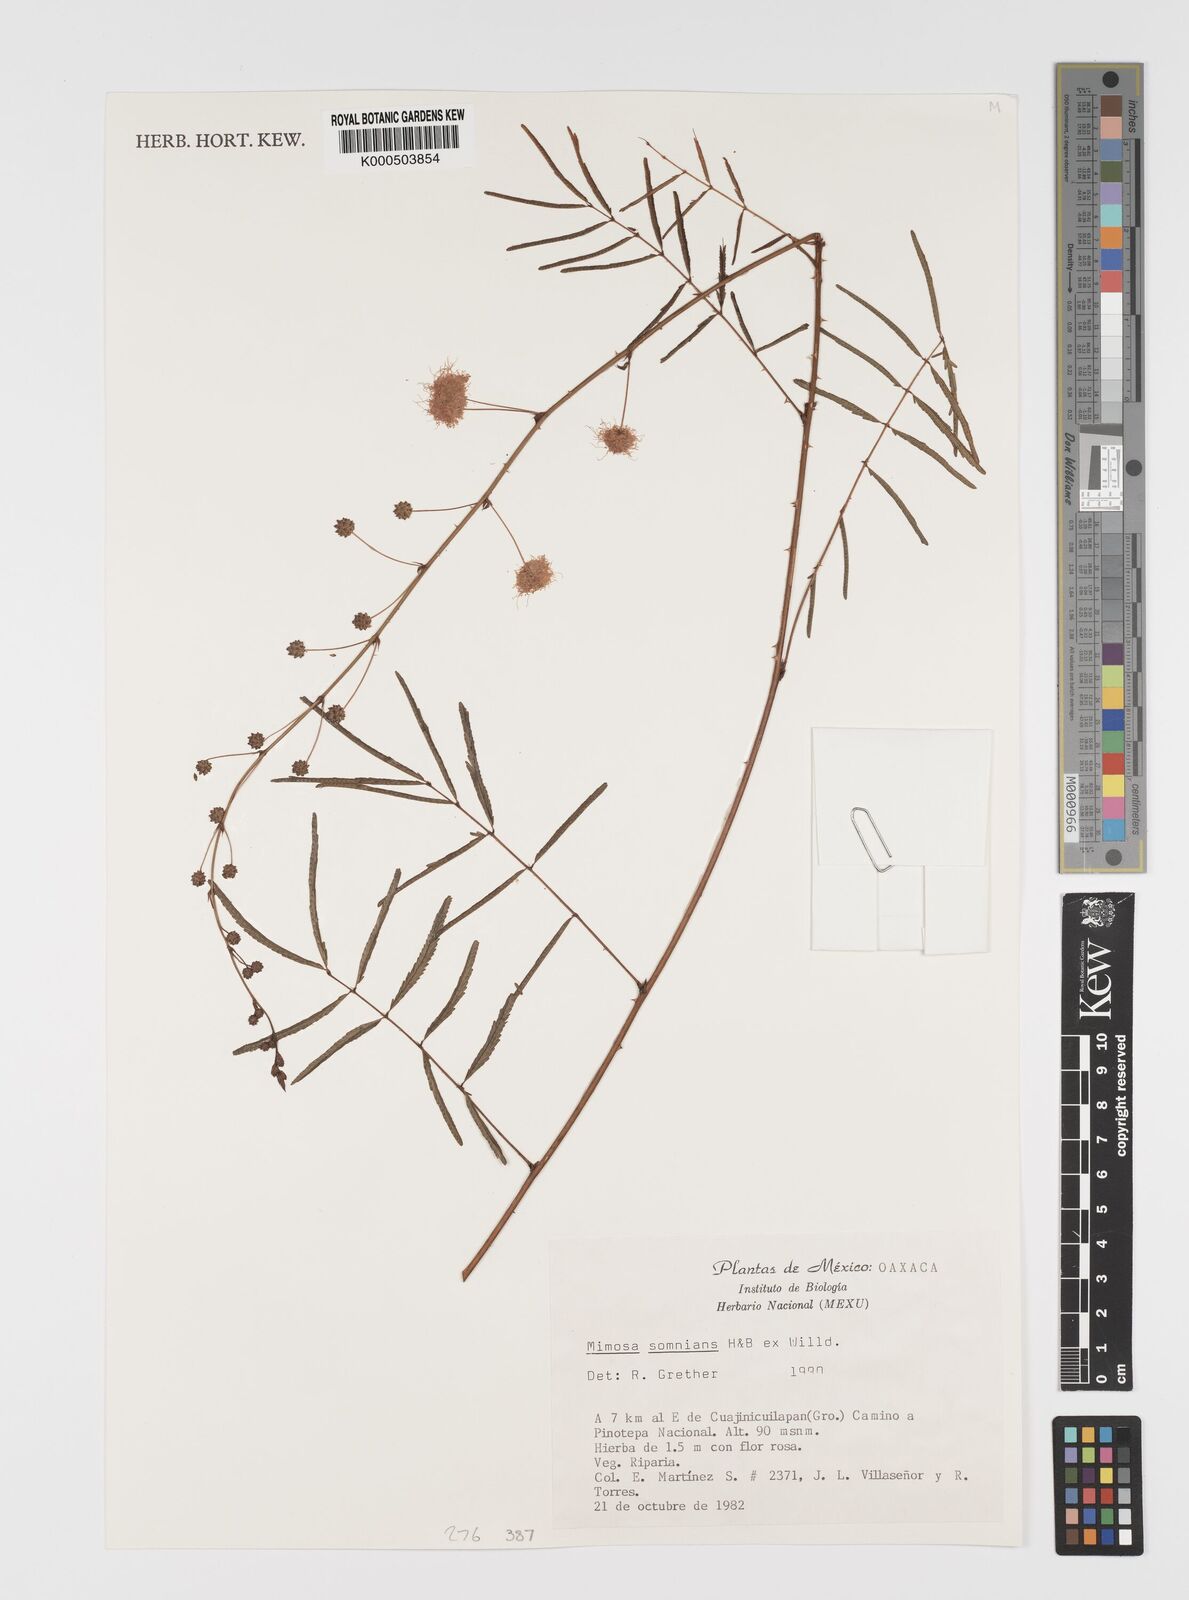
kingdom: Plantae
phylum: Tracheophyta
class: Magnoliopsida
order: Fabales
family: Fabaceae
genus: Mimosa
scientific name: Mimosa somnians
